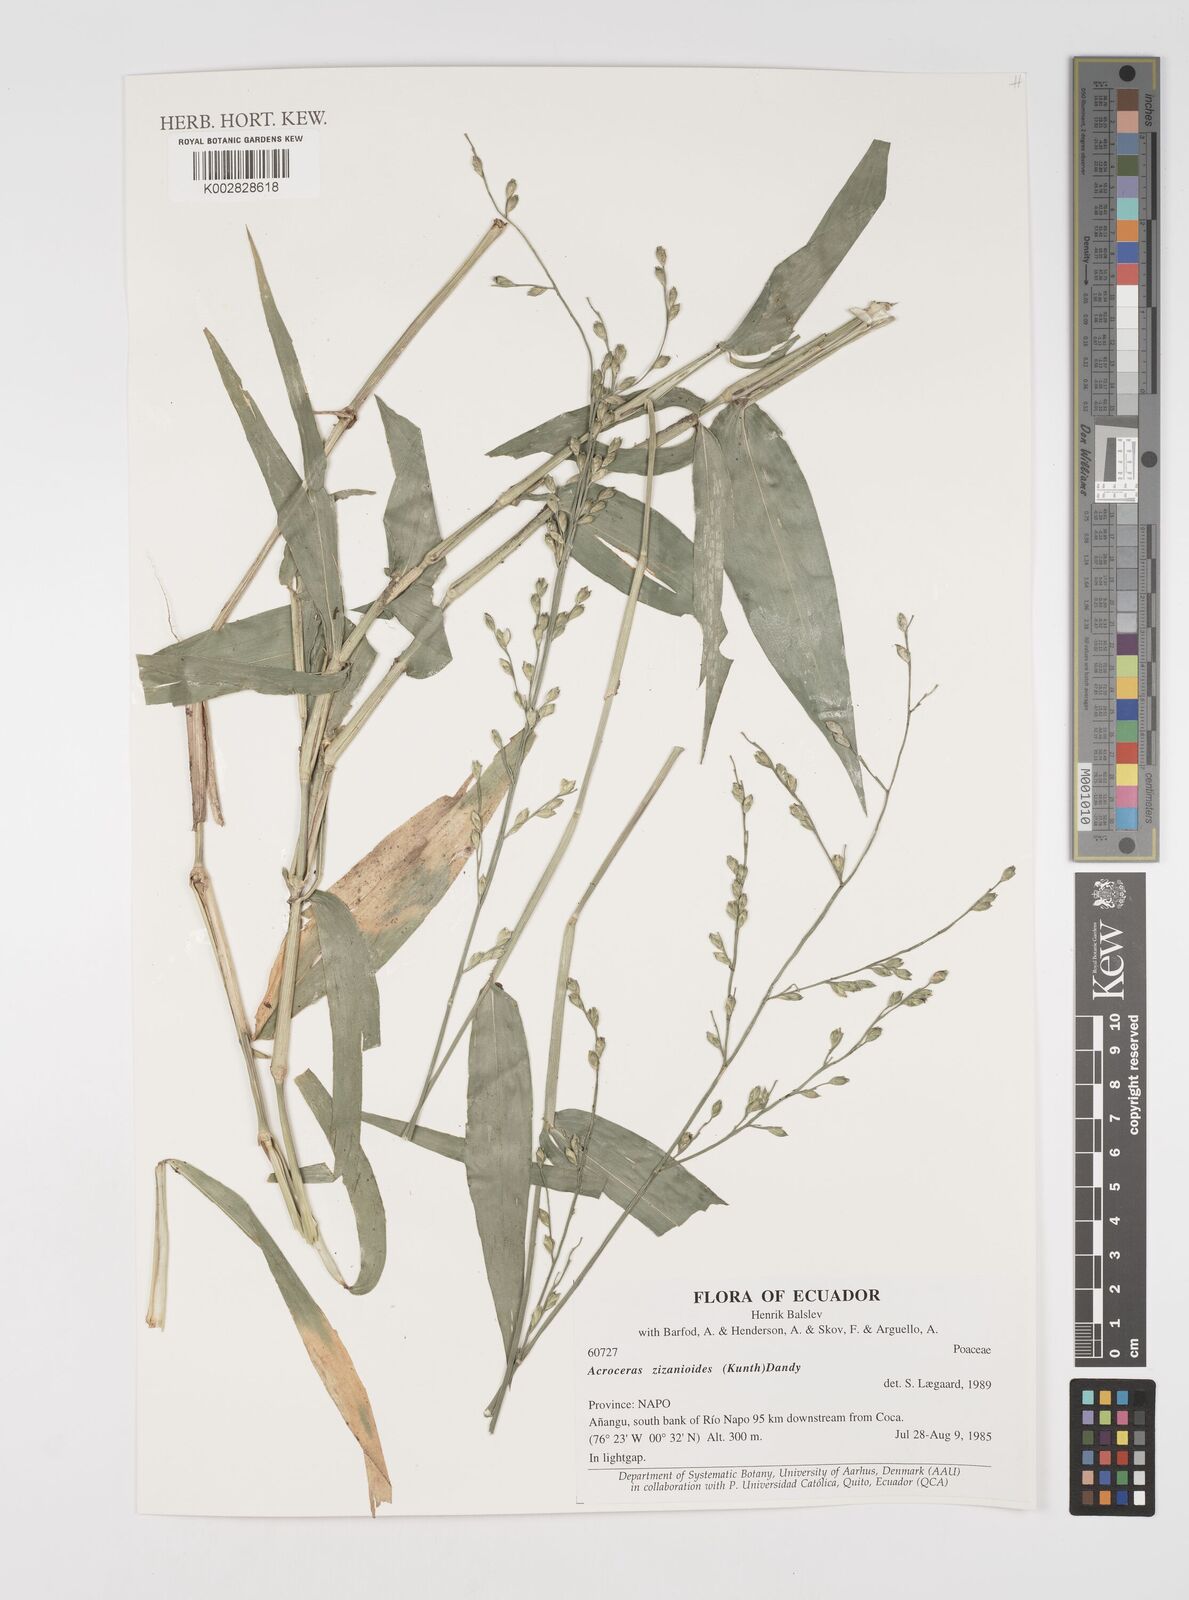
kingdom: Plantae
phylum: Tracheophyta
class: Liliopsida
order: Poales
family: Poaceae
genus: Acroceras
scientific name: Acroceras zizanioides
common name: Oat grass
